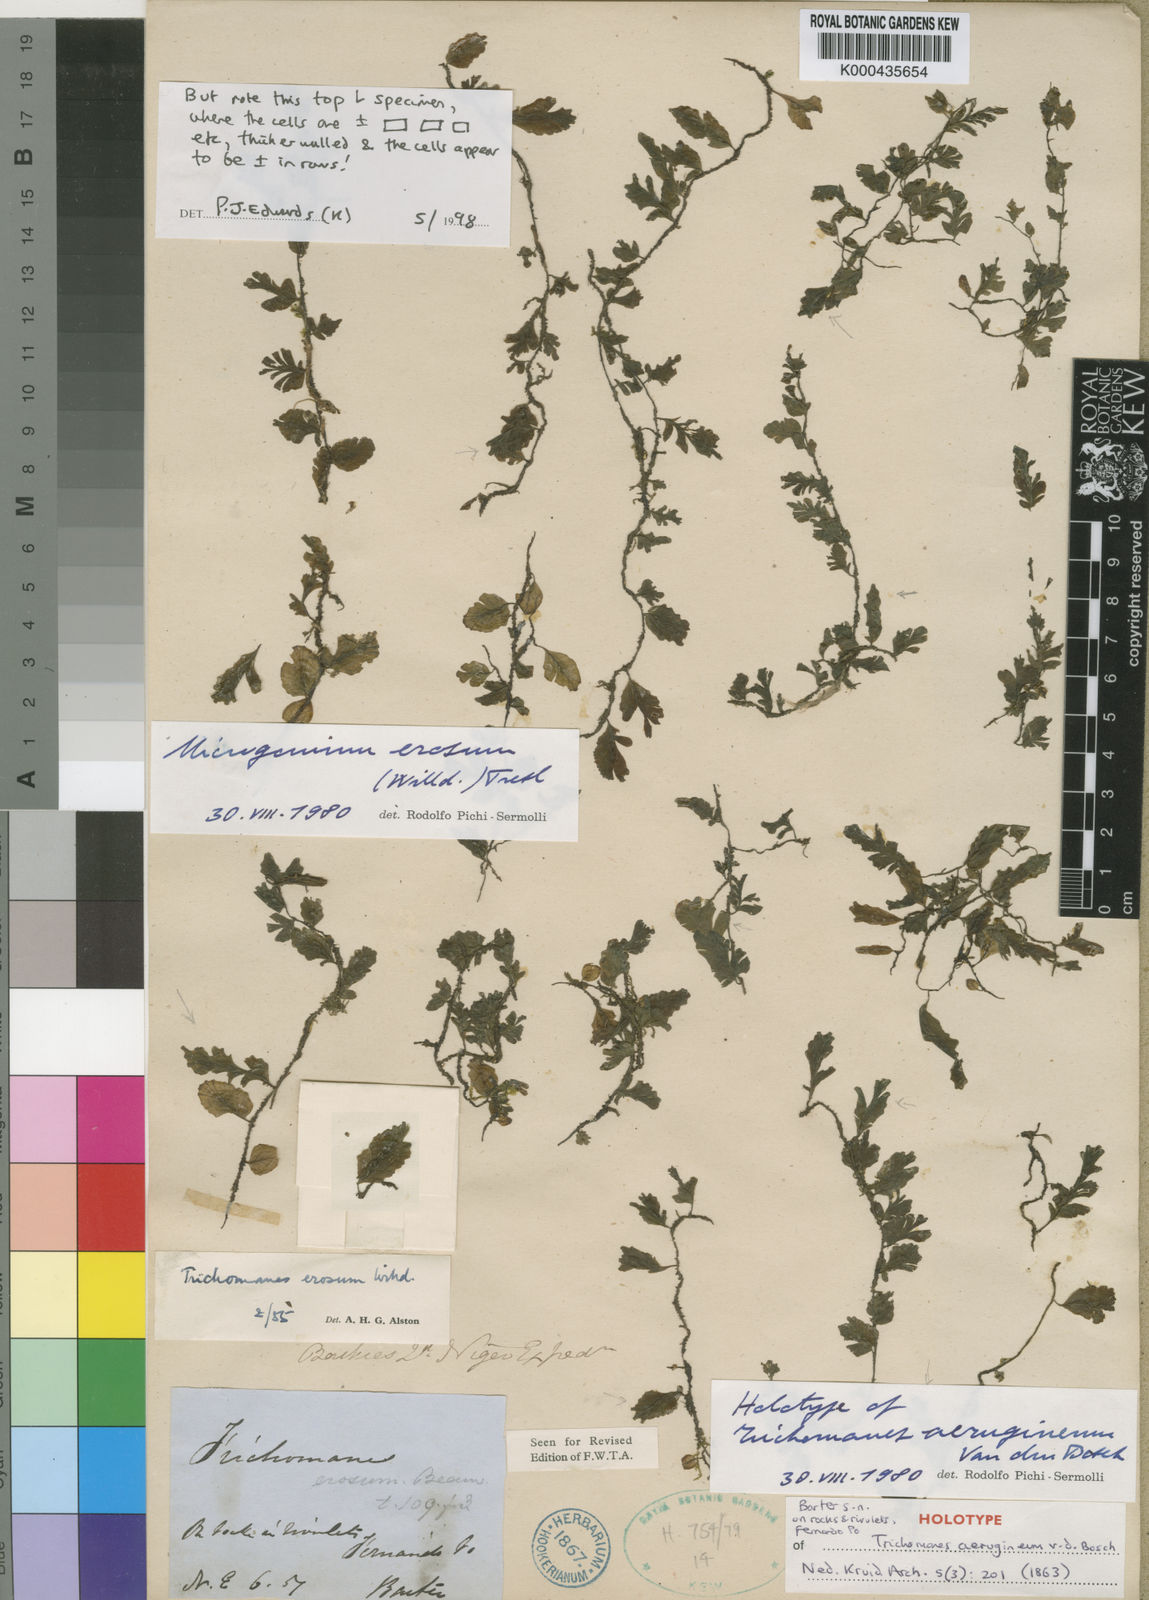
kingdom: Plantae
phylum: Tracheophyta
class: Polypodiopsida
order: Hymenophyllales
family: Hymenophyllaceae
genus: Didymoglossum
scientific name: Didymoglossum erosum
